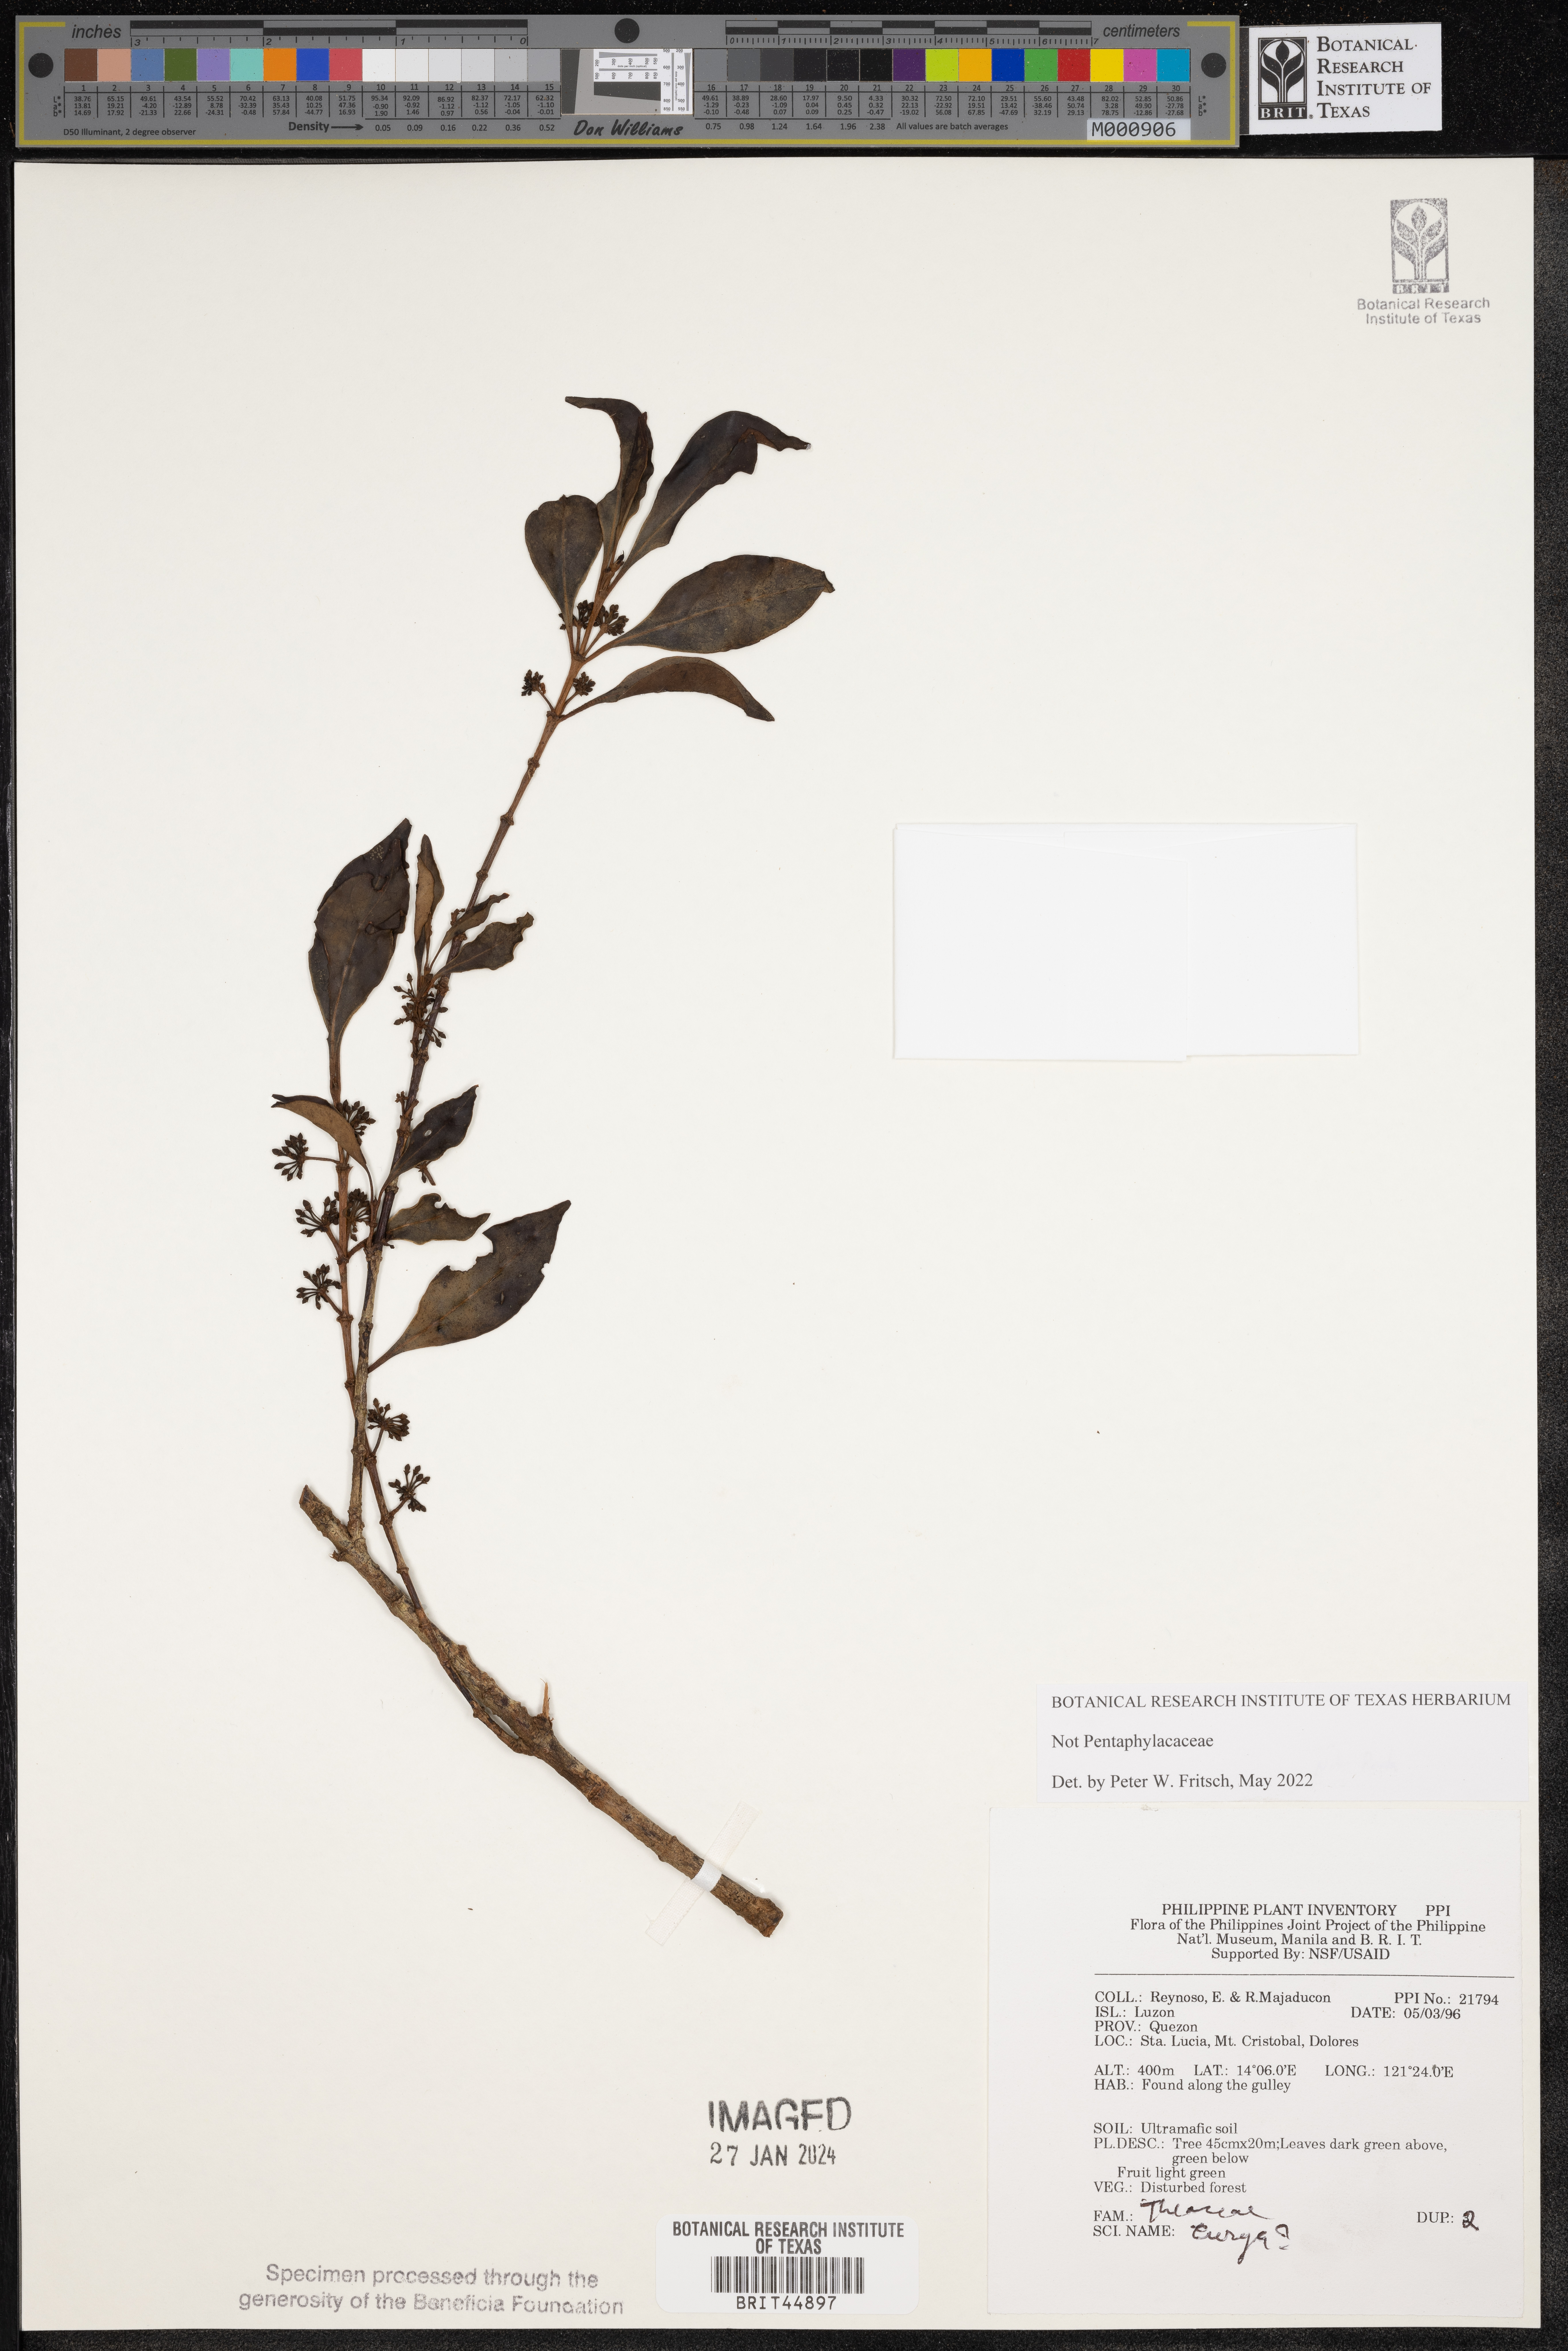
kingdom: Plantae
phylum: Tracheophyta
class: Magnoliopsida
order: Ericales
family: Pentaphylacaceae
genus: Eurya
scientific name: Eurya
